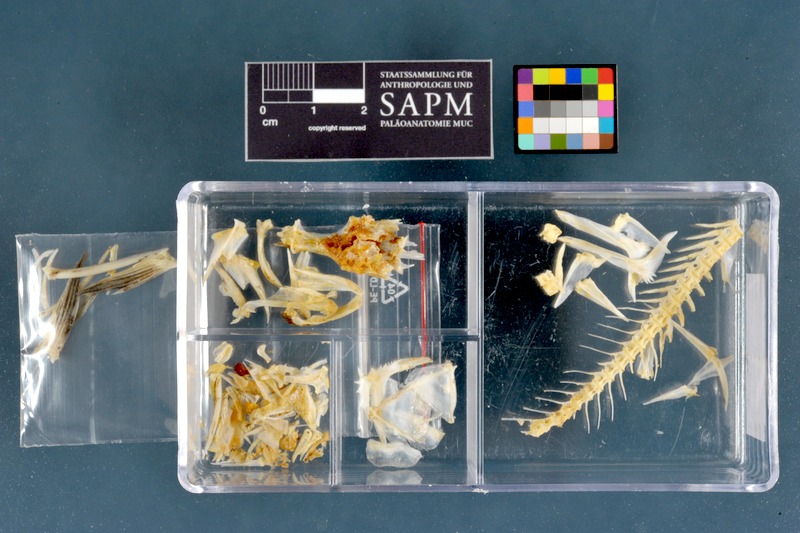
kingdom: Animalia
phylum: Chordata
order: Perciformes
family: Latidae
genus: Lates
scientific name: Lates niloticus
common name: Nile perch
